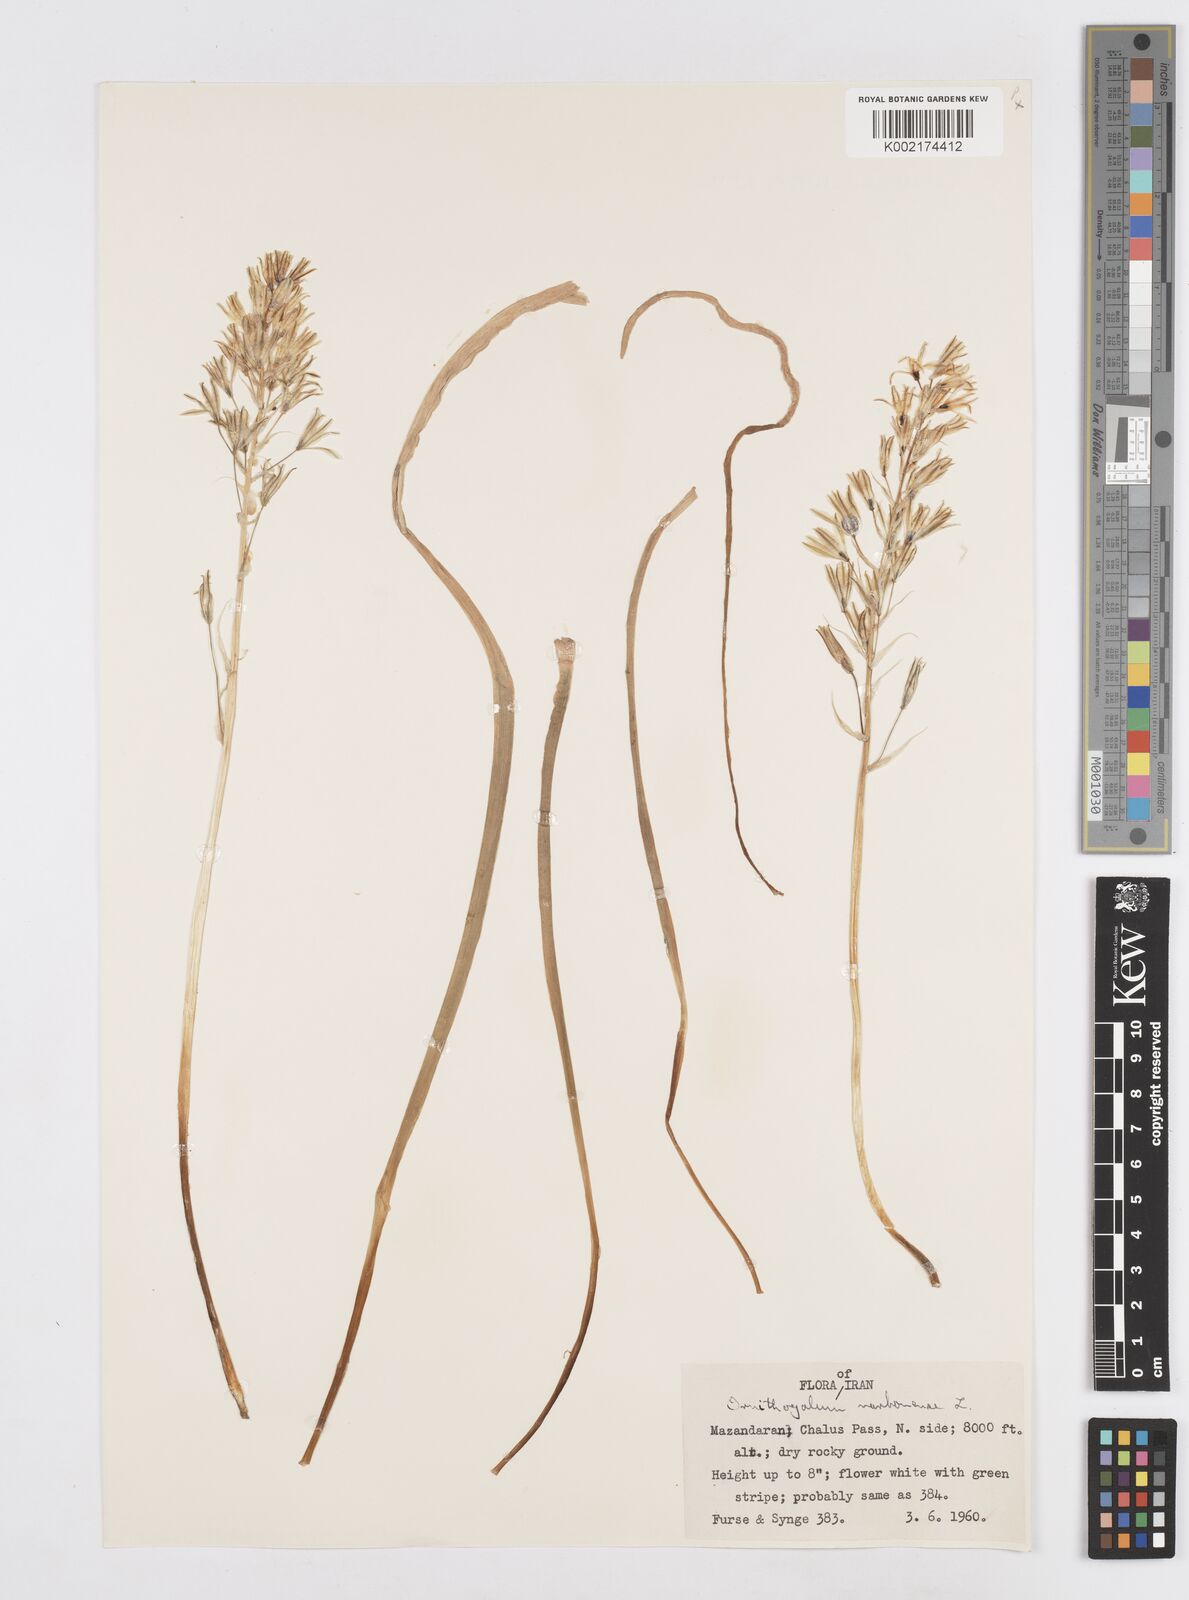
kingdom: Plantae
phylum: Tracheophyta
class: Liliopsida
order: Asparagales
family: Asparagaceae
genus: Ornithogalum
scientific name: Ornithogalum narbonense
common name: Bath-asparagus
